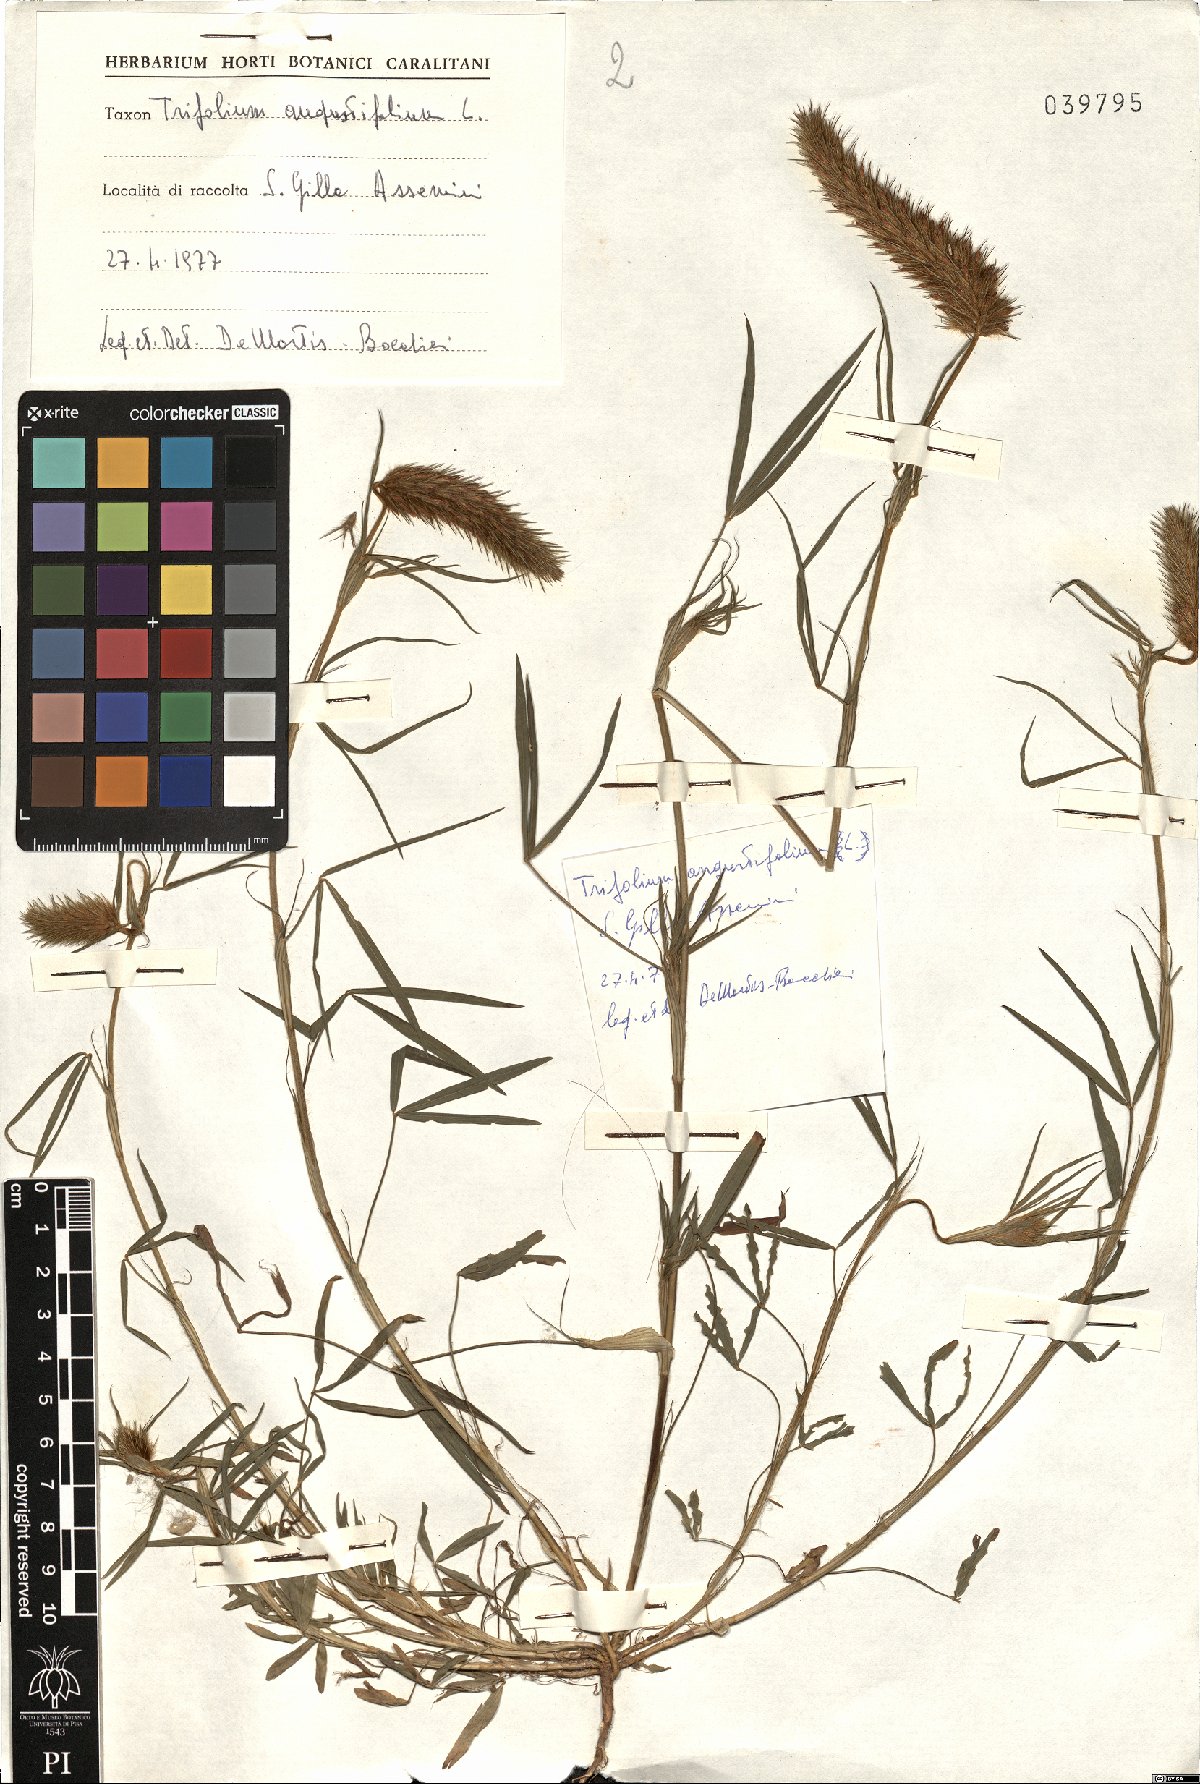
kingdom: Plantae
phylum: Tracheophyta
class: Magnoliopsida
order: Fabales
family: Fabaceae
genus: Trifolium
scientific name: Trifolium angustifolium
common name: Narrow clover
